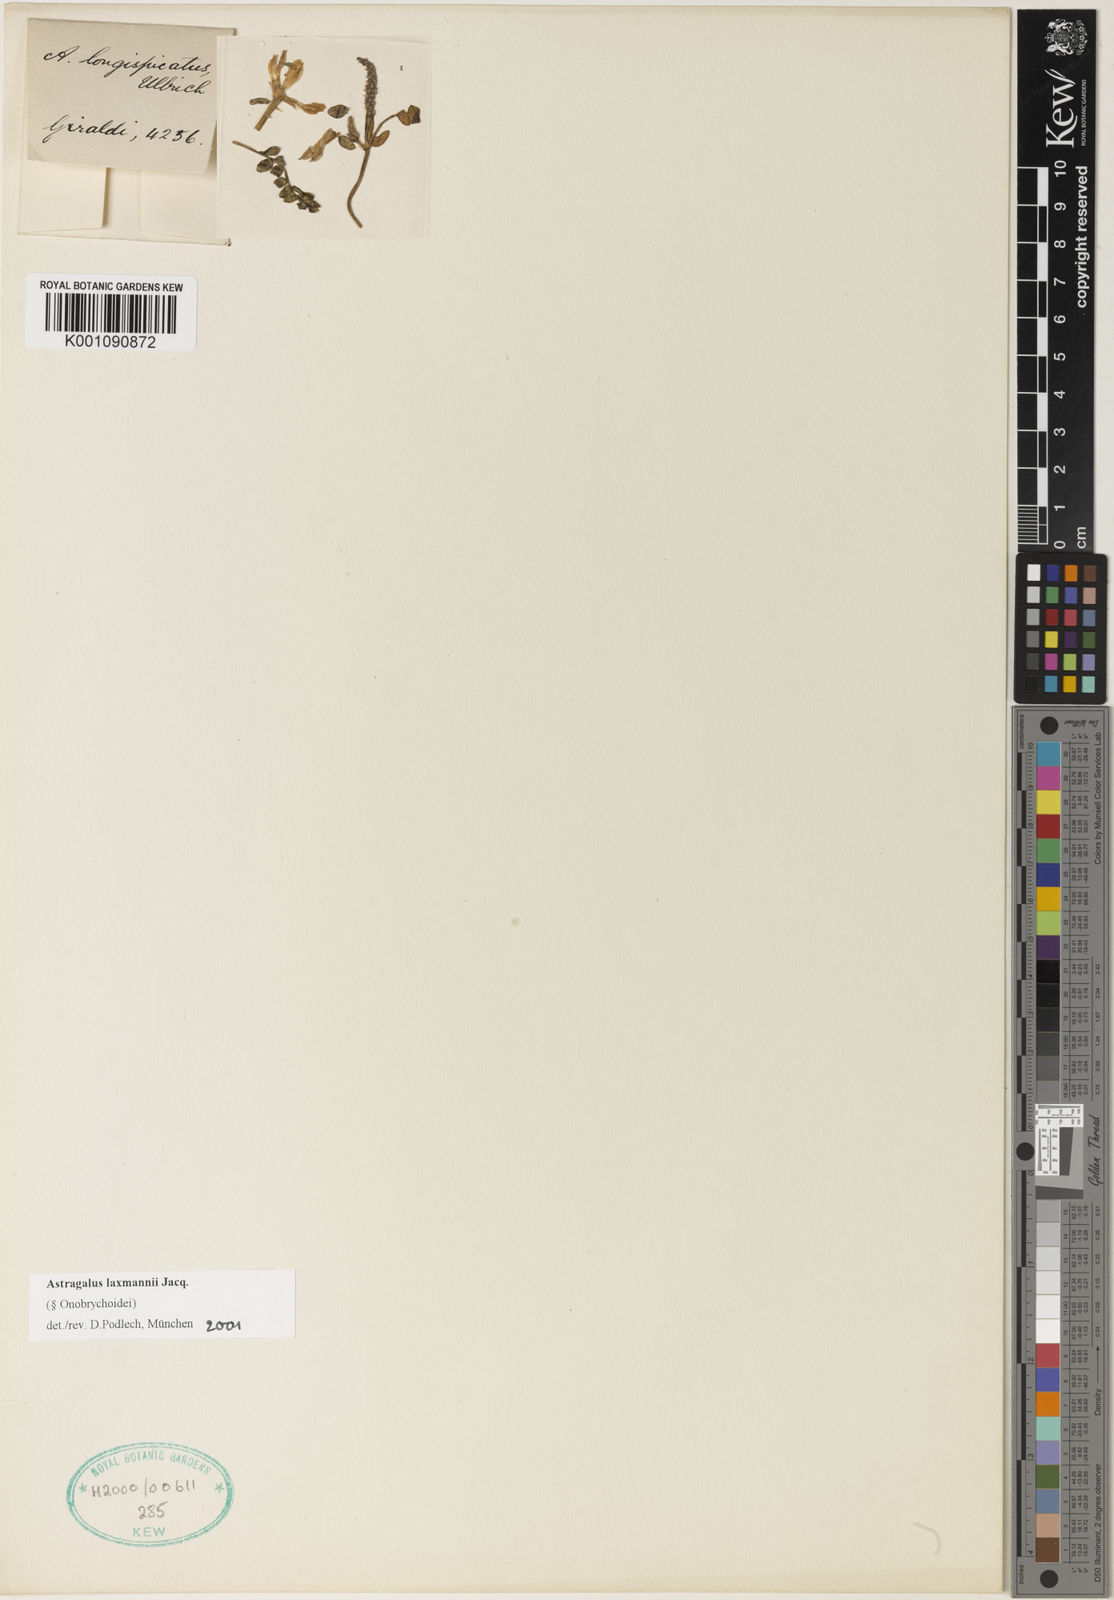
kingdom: Plantae
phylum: Tracheophyta
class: Magnoliopsida
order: Fabales
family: Fabaceae
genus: Astragalus
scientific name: Astragalus
